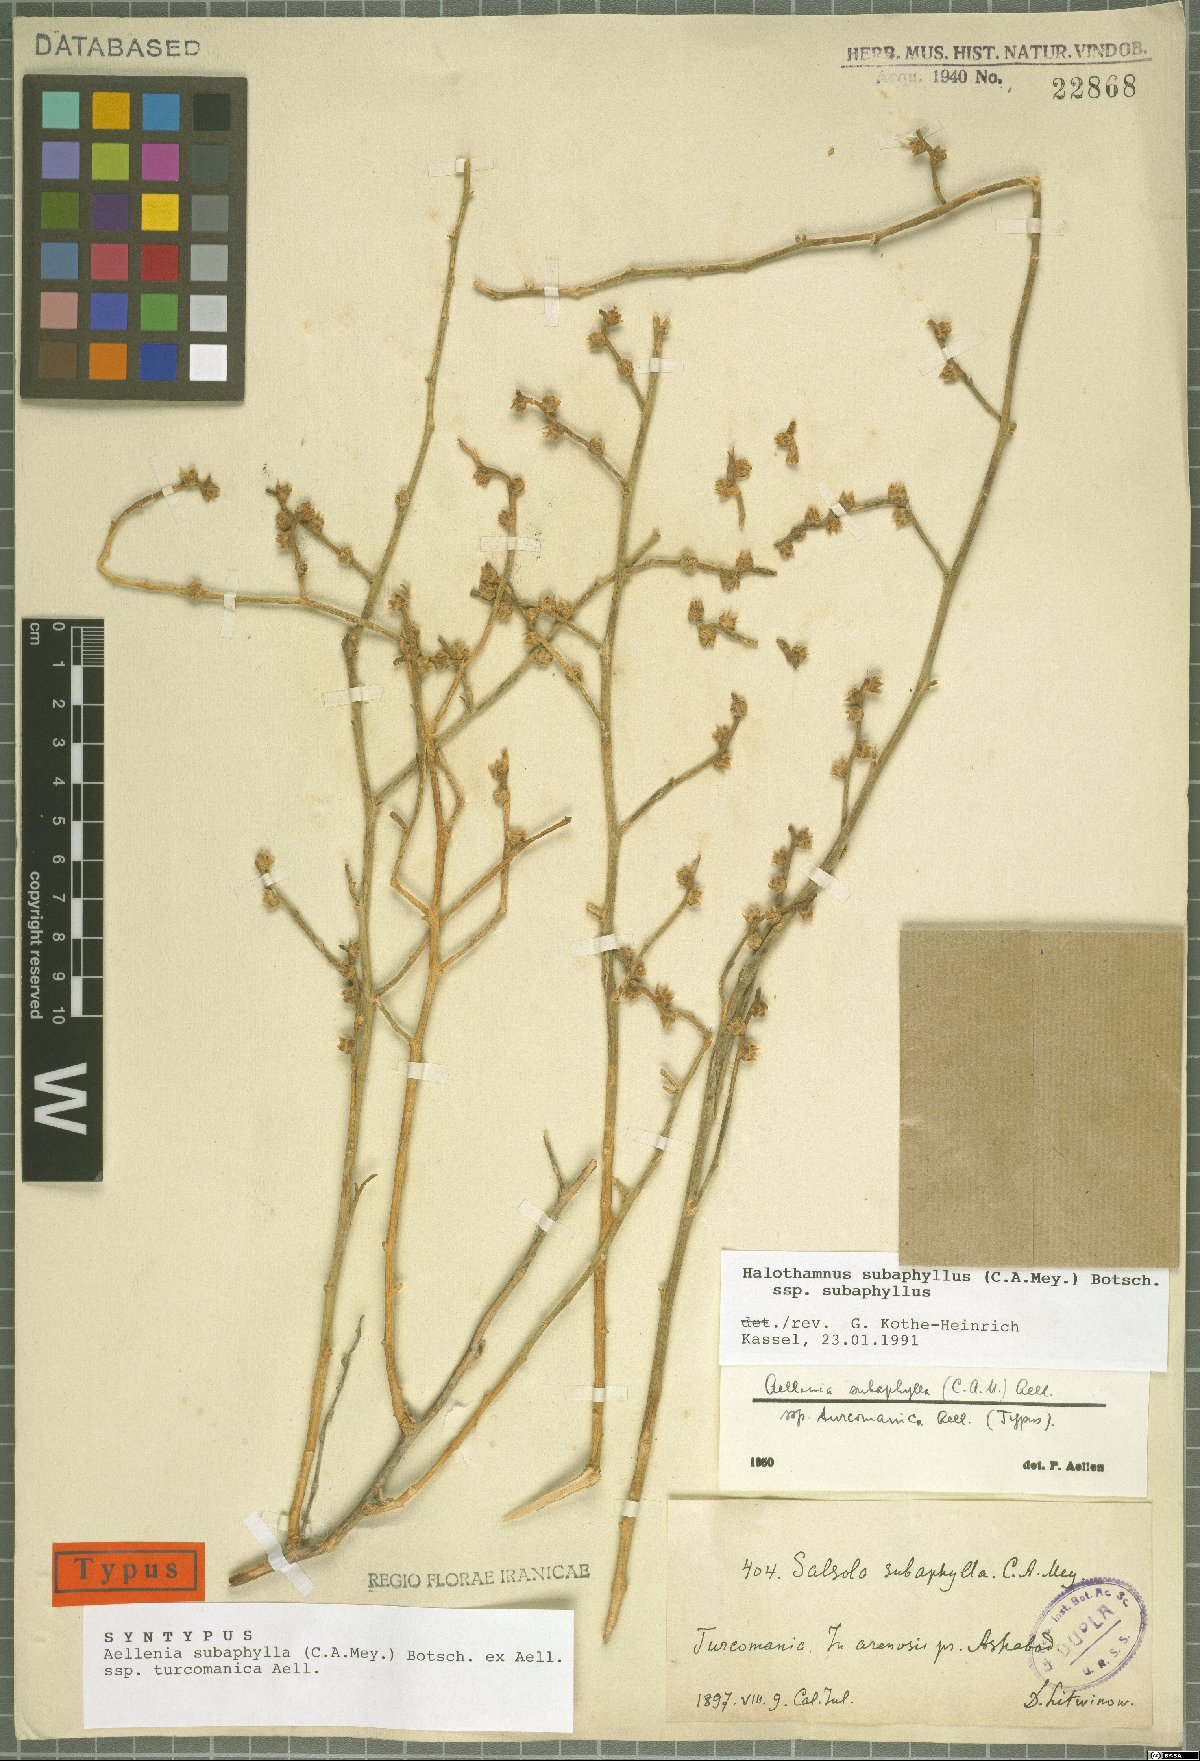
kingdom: Plantae
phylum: Tracheophyta
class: Magnoliopsida
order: Caryophyllales
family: Amaranthaceae
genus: Halothamnus
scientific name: Halothamnus subaphyllus
